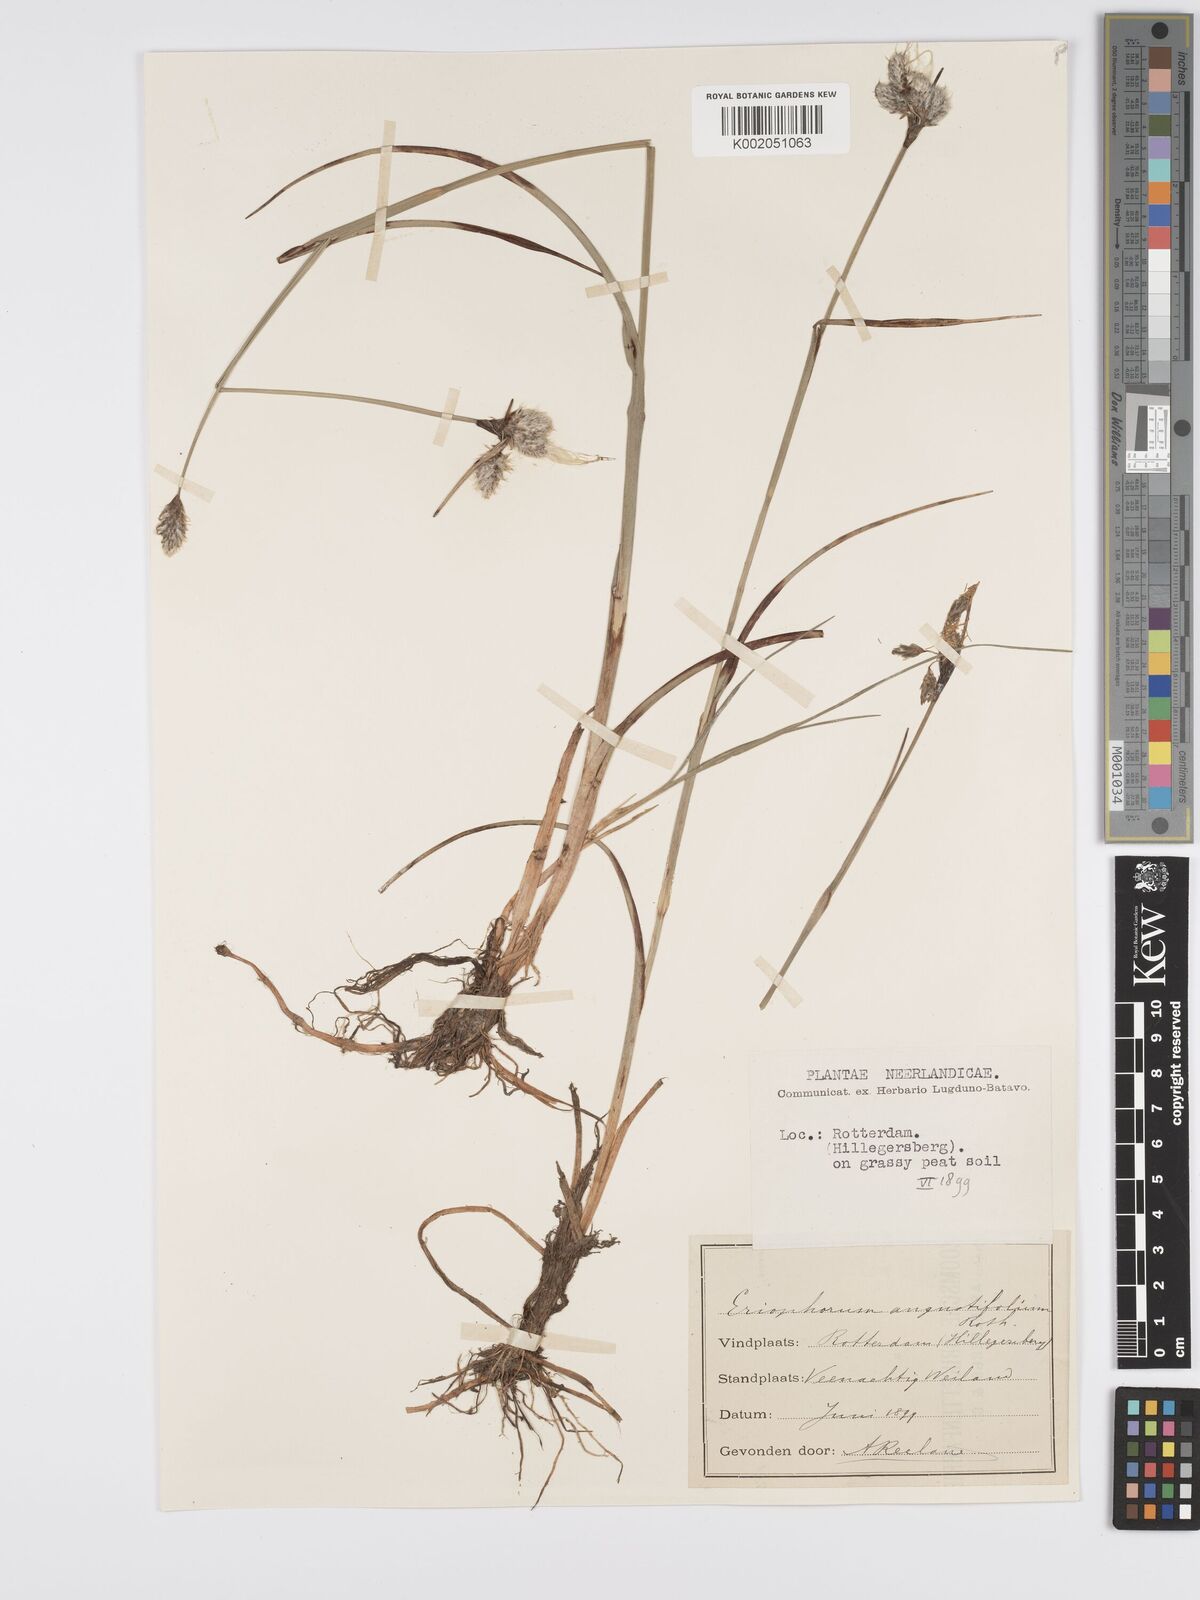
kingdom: Plantae
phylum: Tracheophyta
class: Liliopsida
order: Poales
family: Cyperaceae
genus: Eriophorum
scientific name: Eriophorum angustifolium
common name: Common cottongrass
